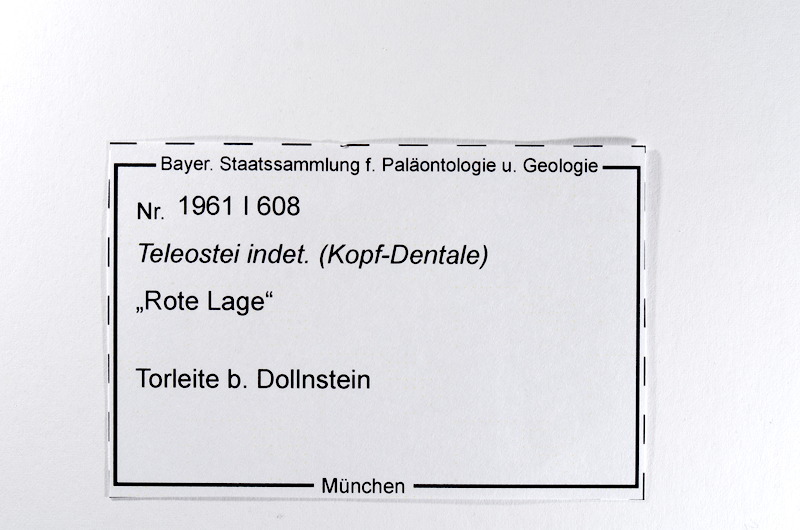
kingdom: Animalia
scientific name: Animalia
